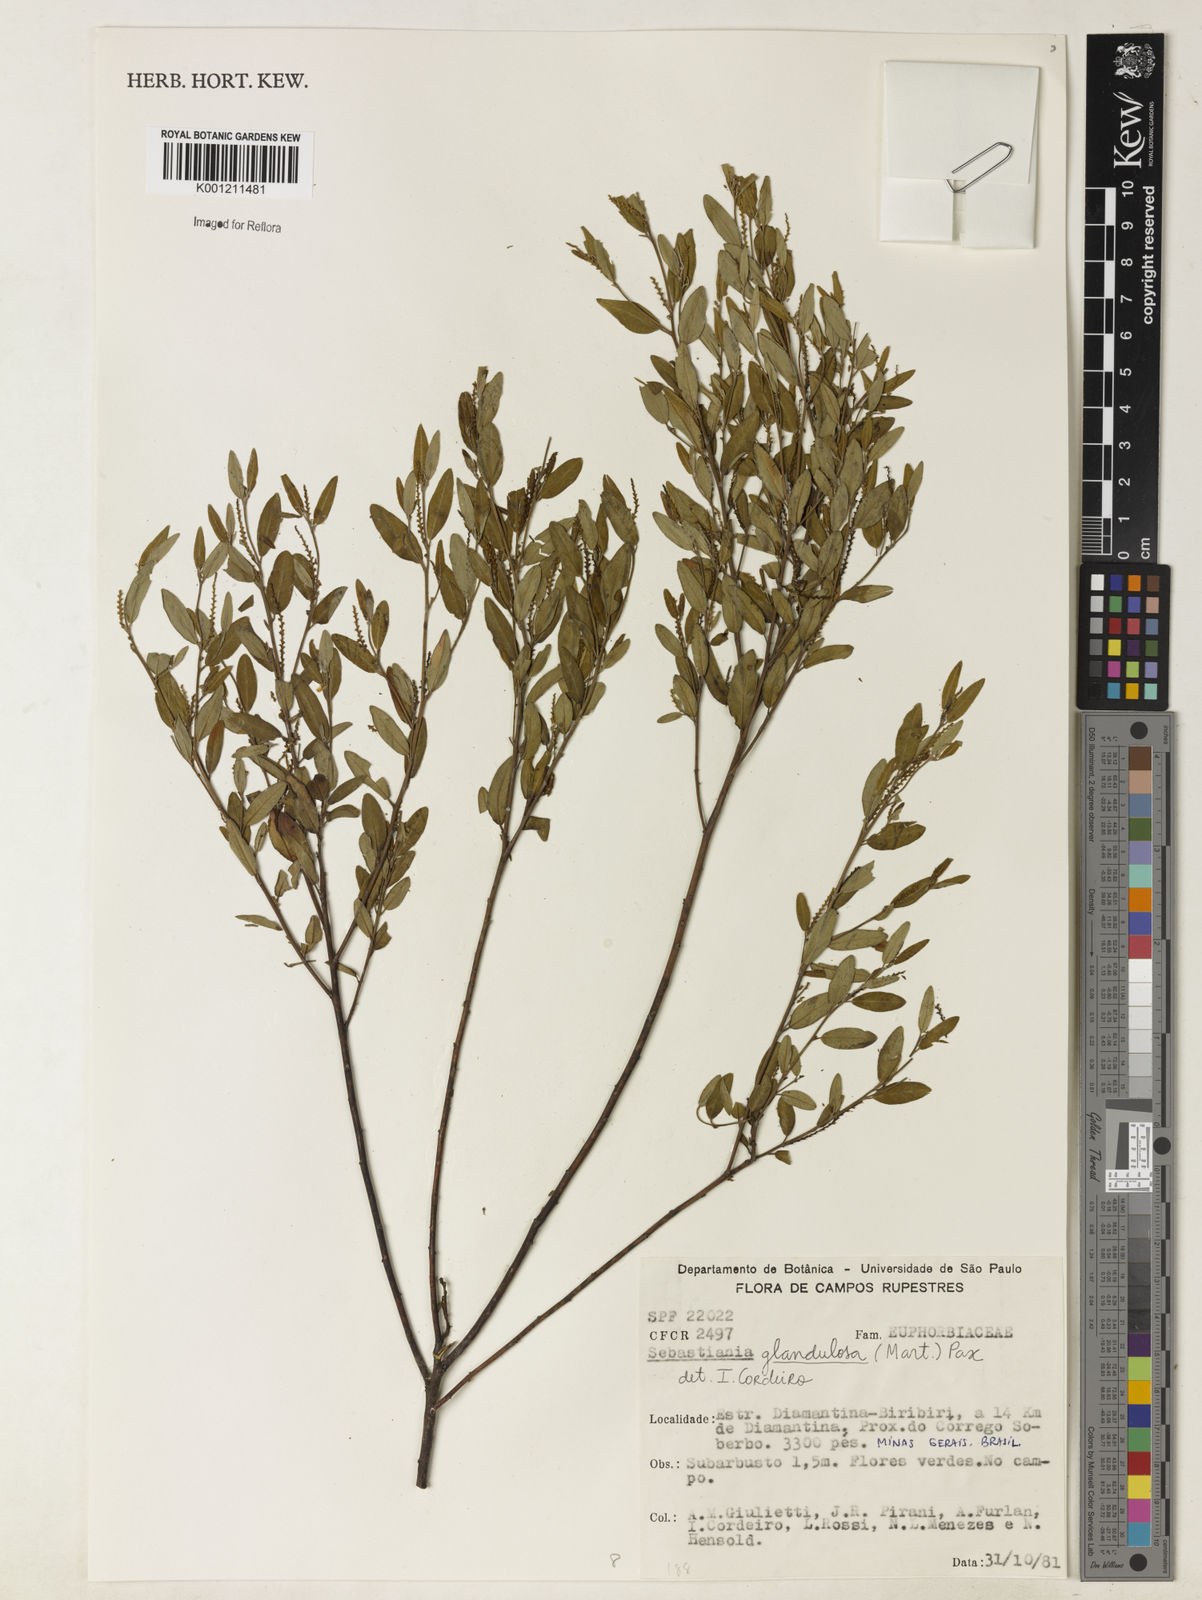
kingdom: Plantae
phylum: Tracheophyta
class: Magnoliopsida
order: Malpighiales
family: Euphorbiaceae
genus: Microstachys
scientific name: Microstachys glandulosa
